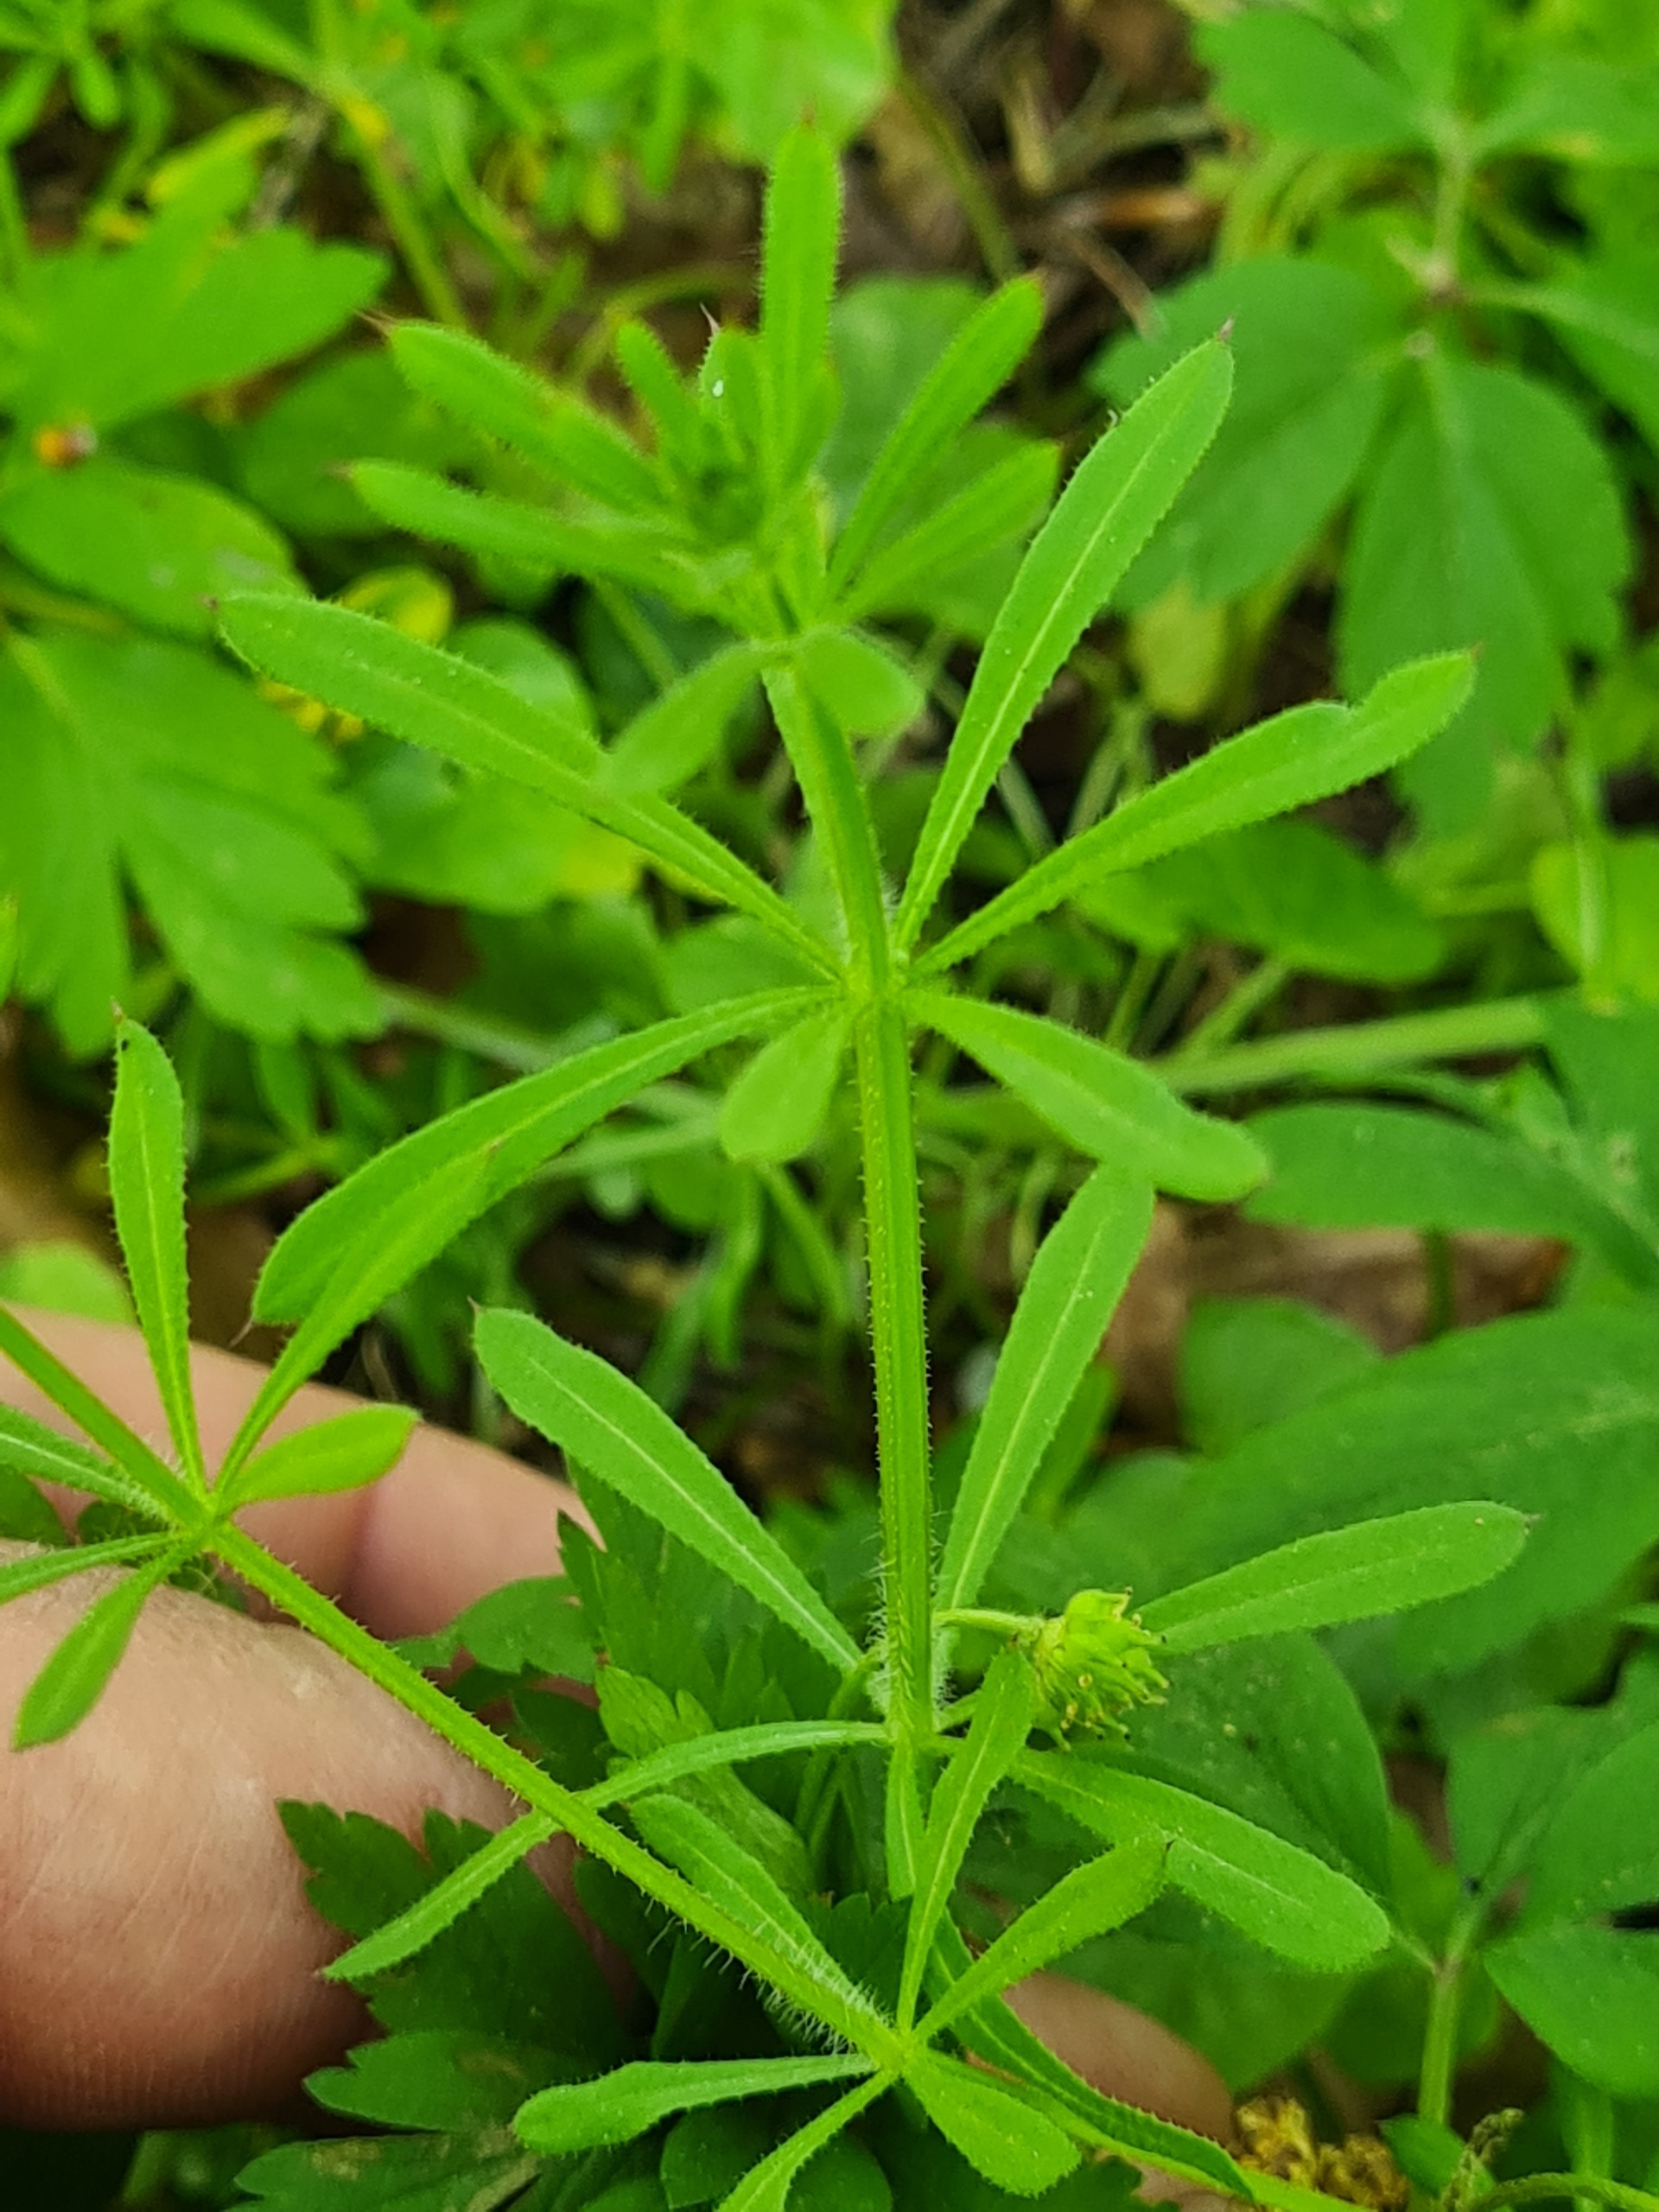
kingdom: Plantae
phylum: Tracheophyta
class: Magnoliopsida
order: Gentianales
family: Rubiaceae
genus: Galium
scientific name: Galium aparine
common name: Burre-snerre
